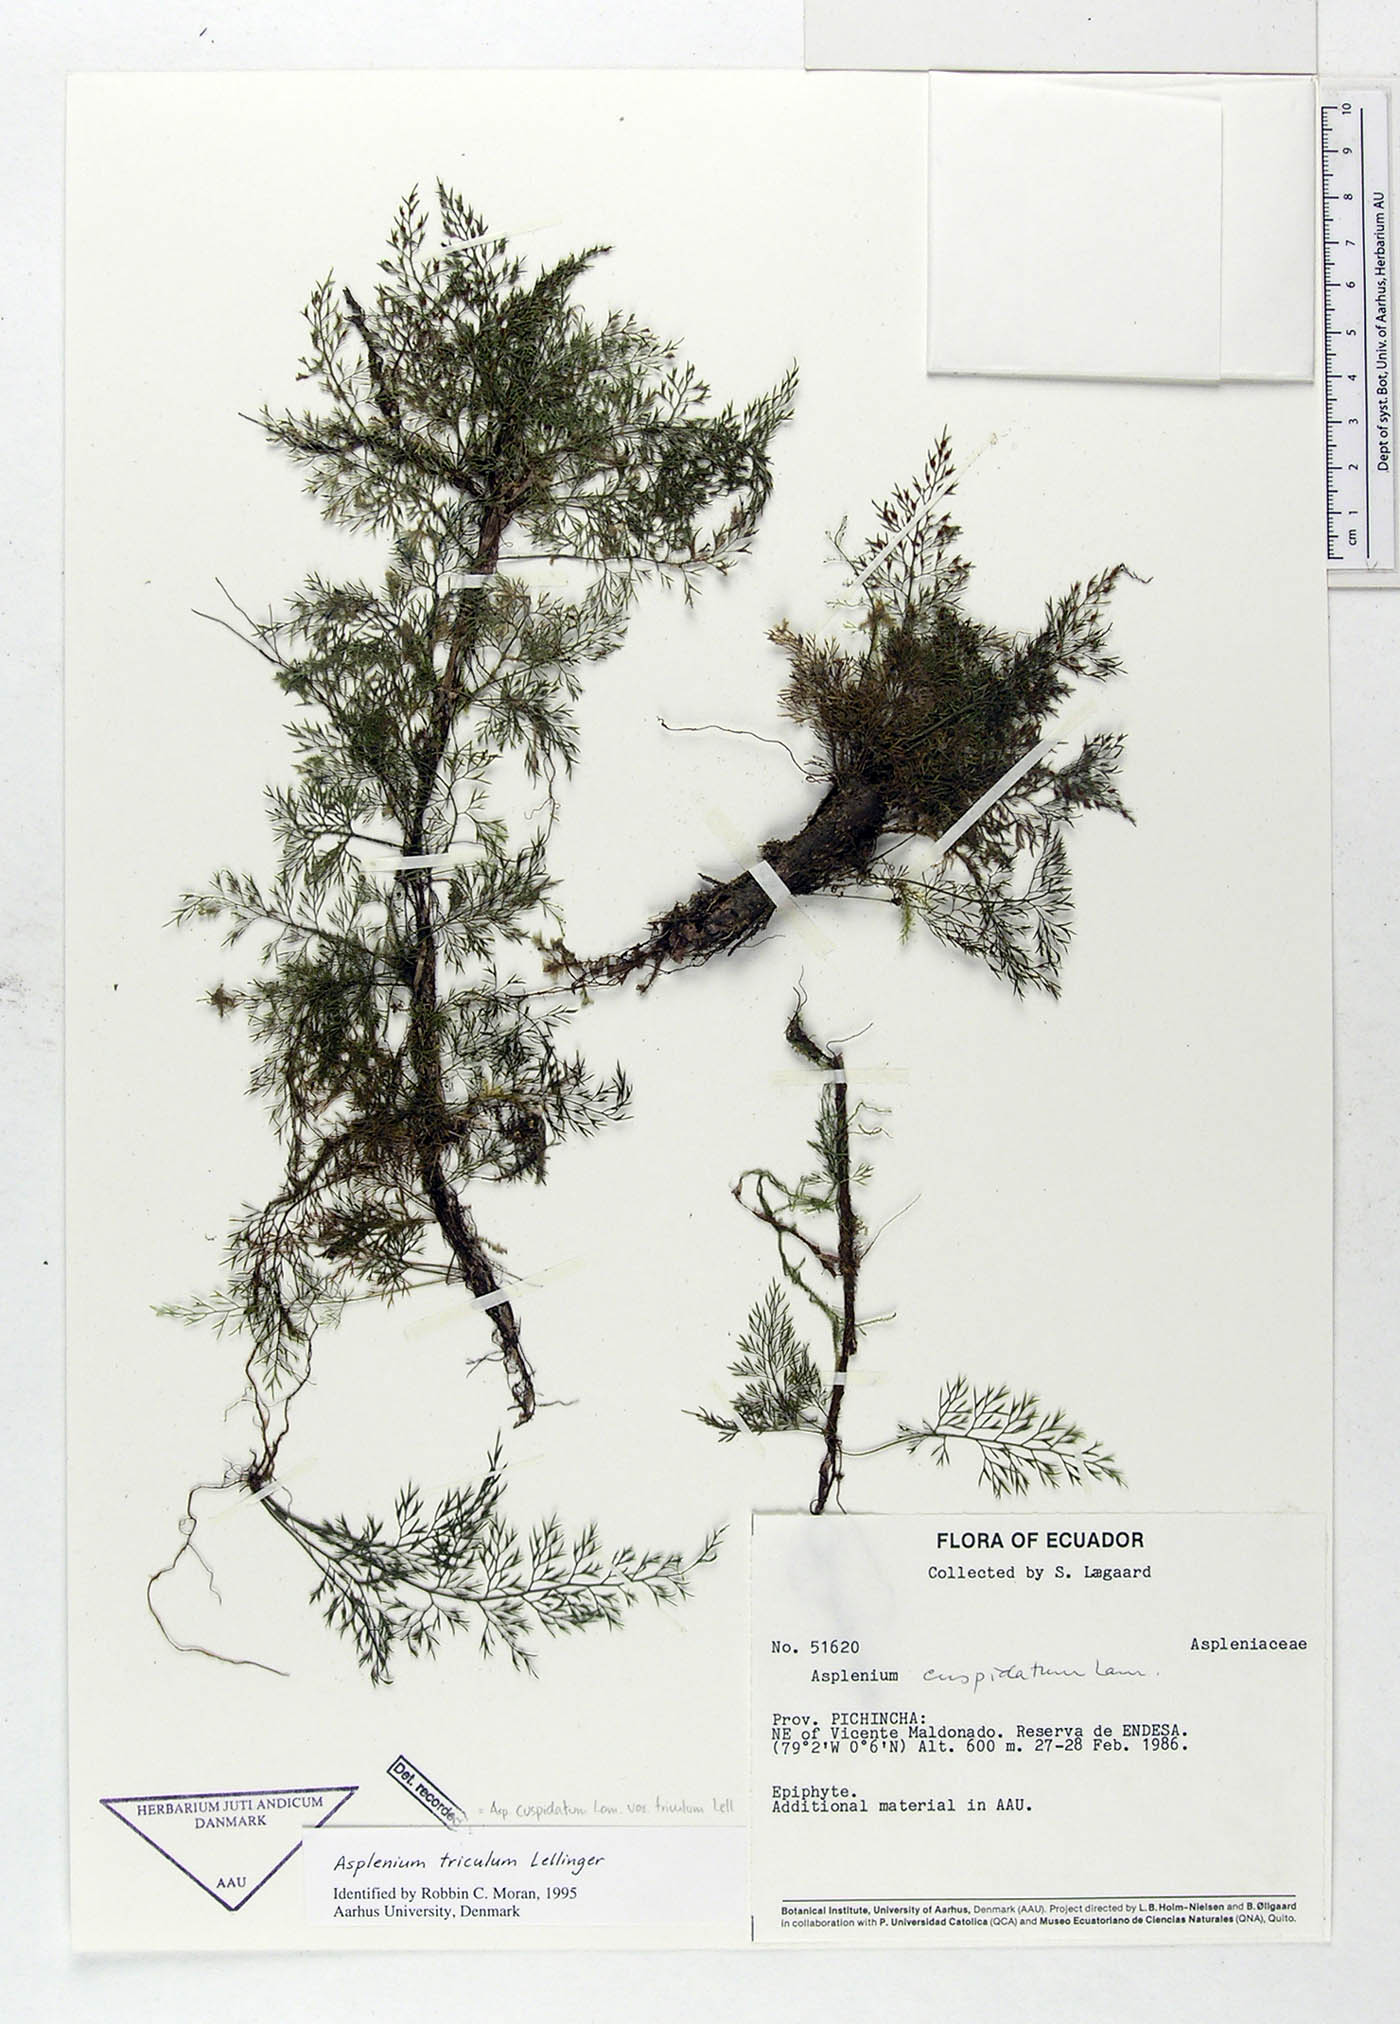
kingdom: Plantae
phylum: Tracheophyta
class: Polypodiopsida
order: Polypodiales
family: Aspleniaceae
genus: Asplenium
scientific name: Asplenium cuspidatum
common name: Eared spleenwort
